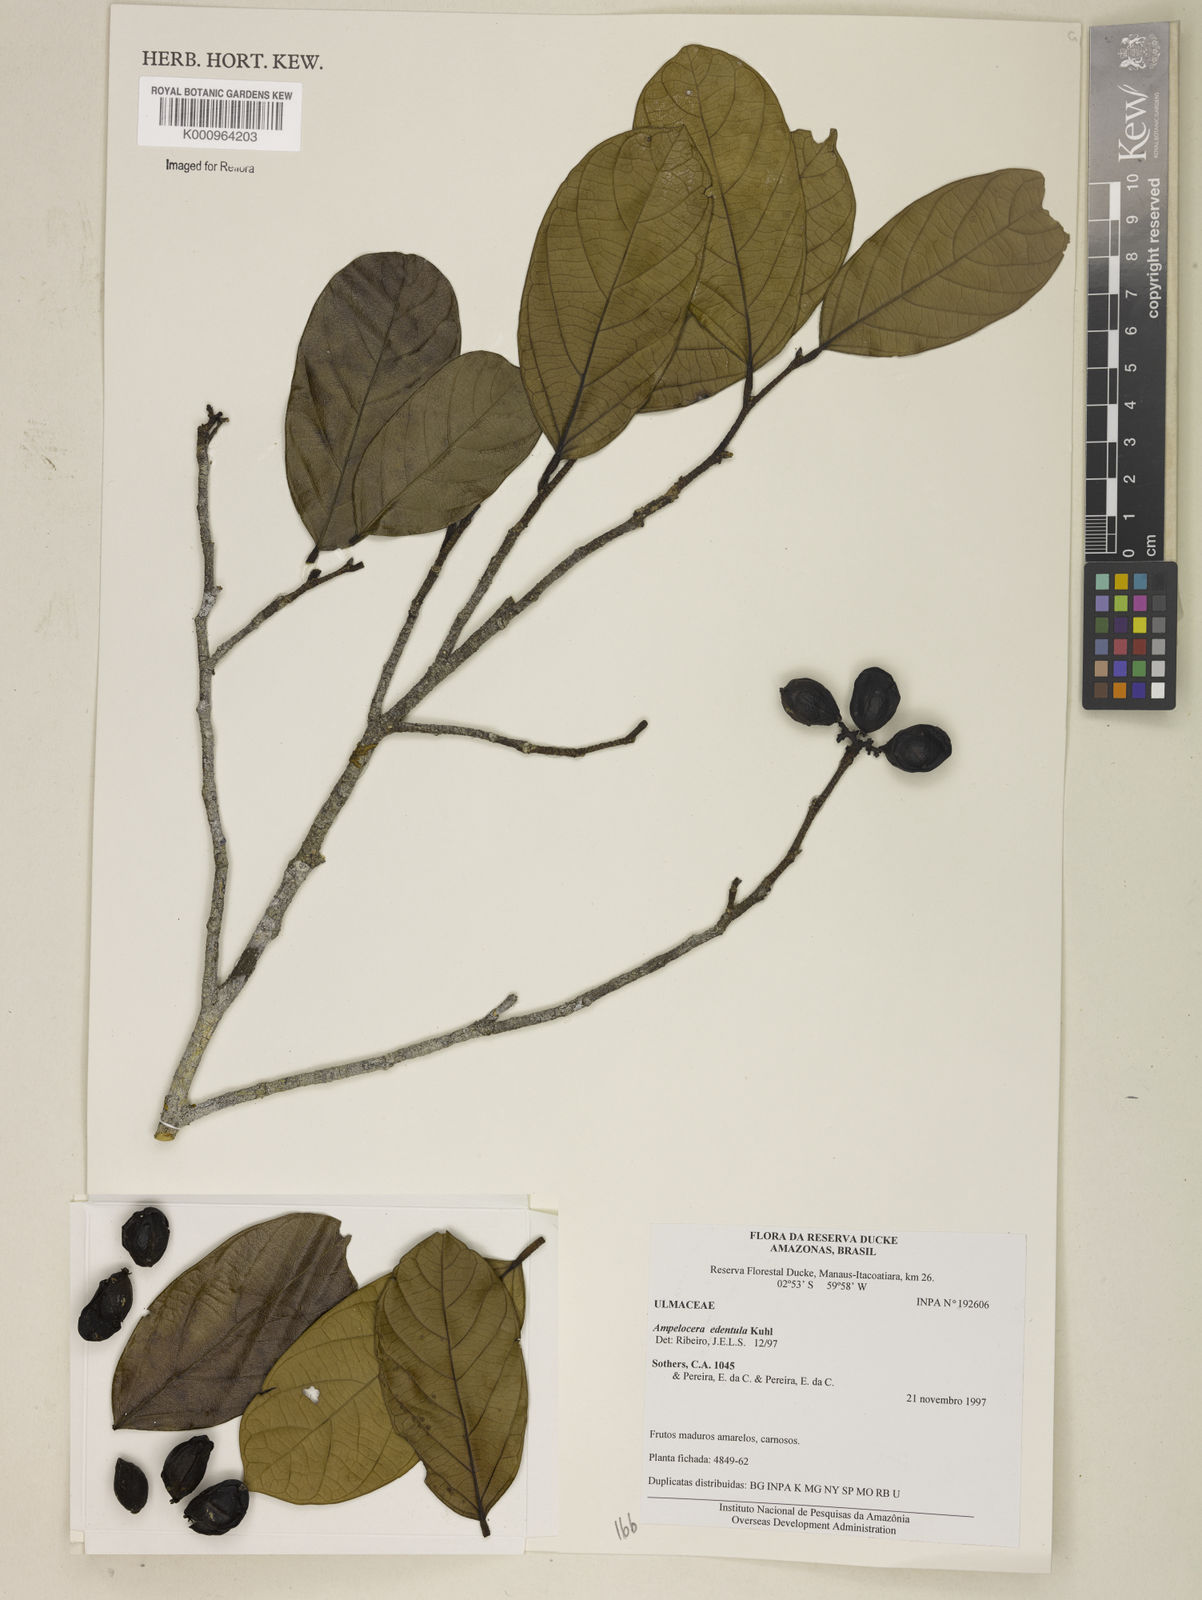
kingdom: Plantae
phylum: Tracheophyta
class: Magnoliopsida
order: Rosales
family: Cannabaceae
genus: Ampelocera
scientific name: Ampelocera edentula
